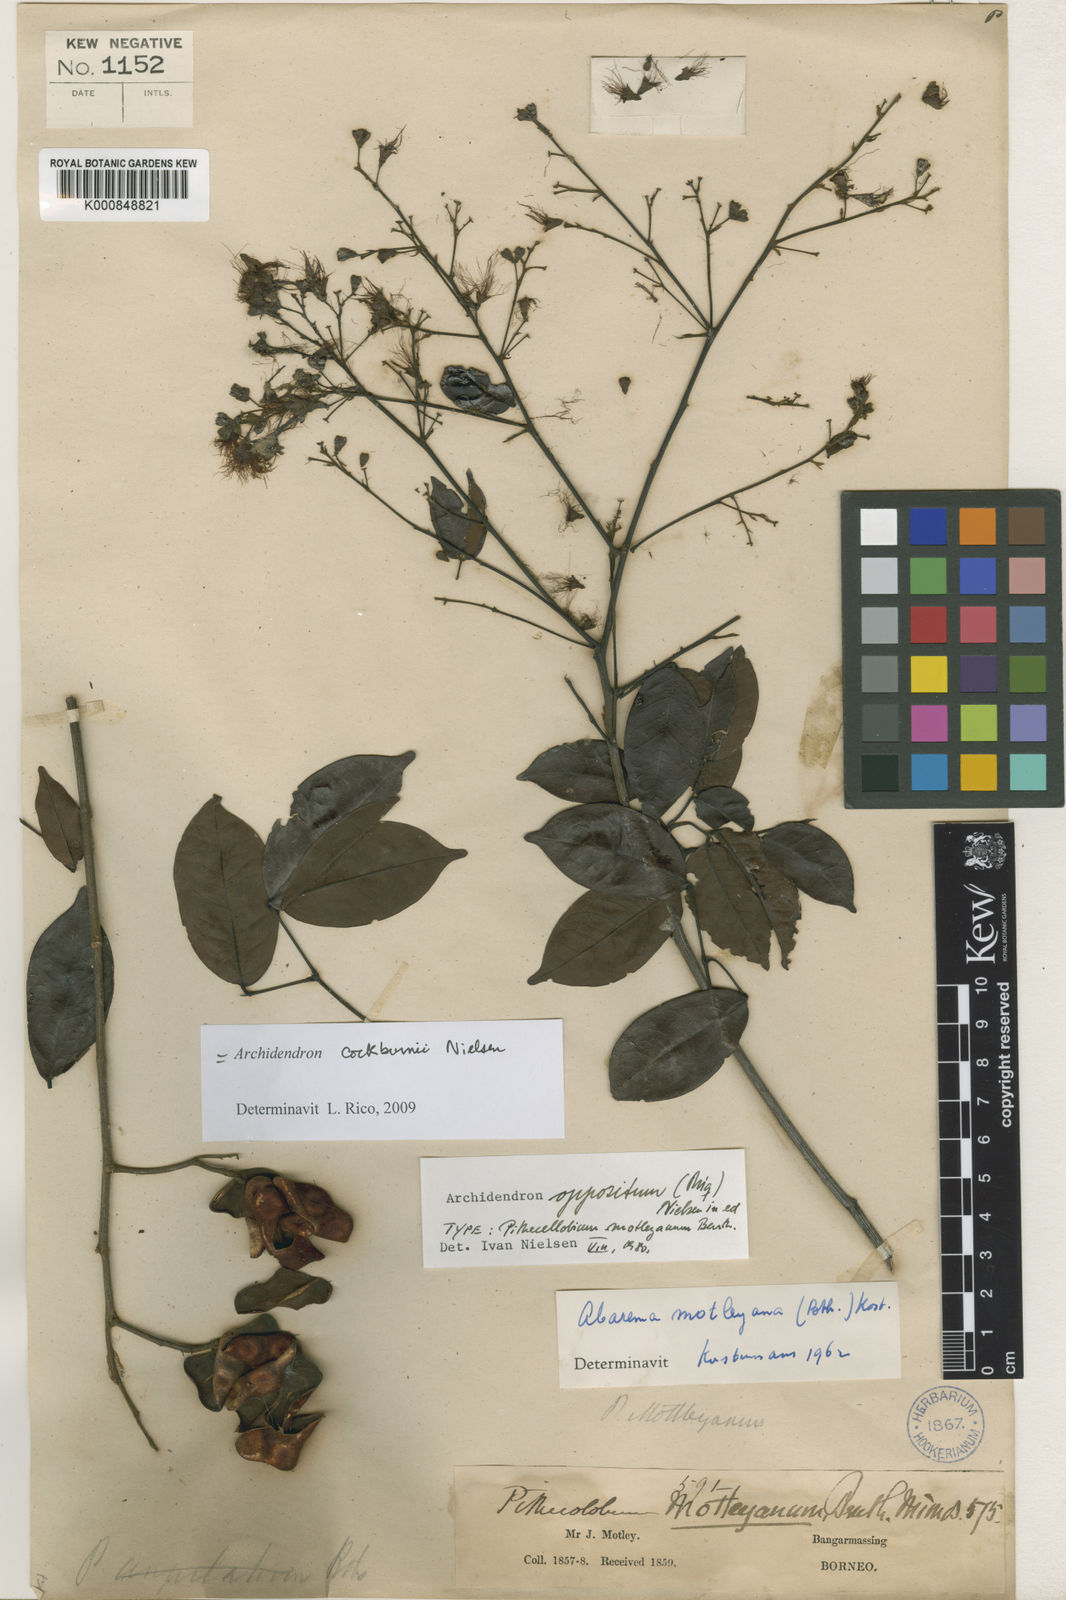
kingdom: Plantae
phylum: Tracheophyta
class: Magnoliopsida
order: Fabales
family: Fabaceae
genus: Archidendron
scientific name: Archidendron cockburnii
